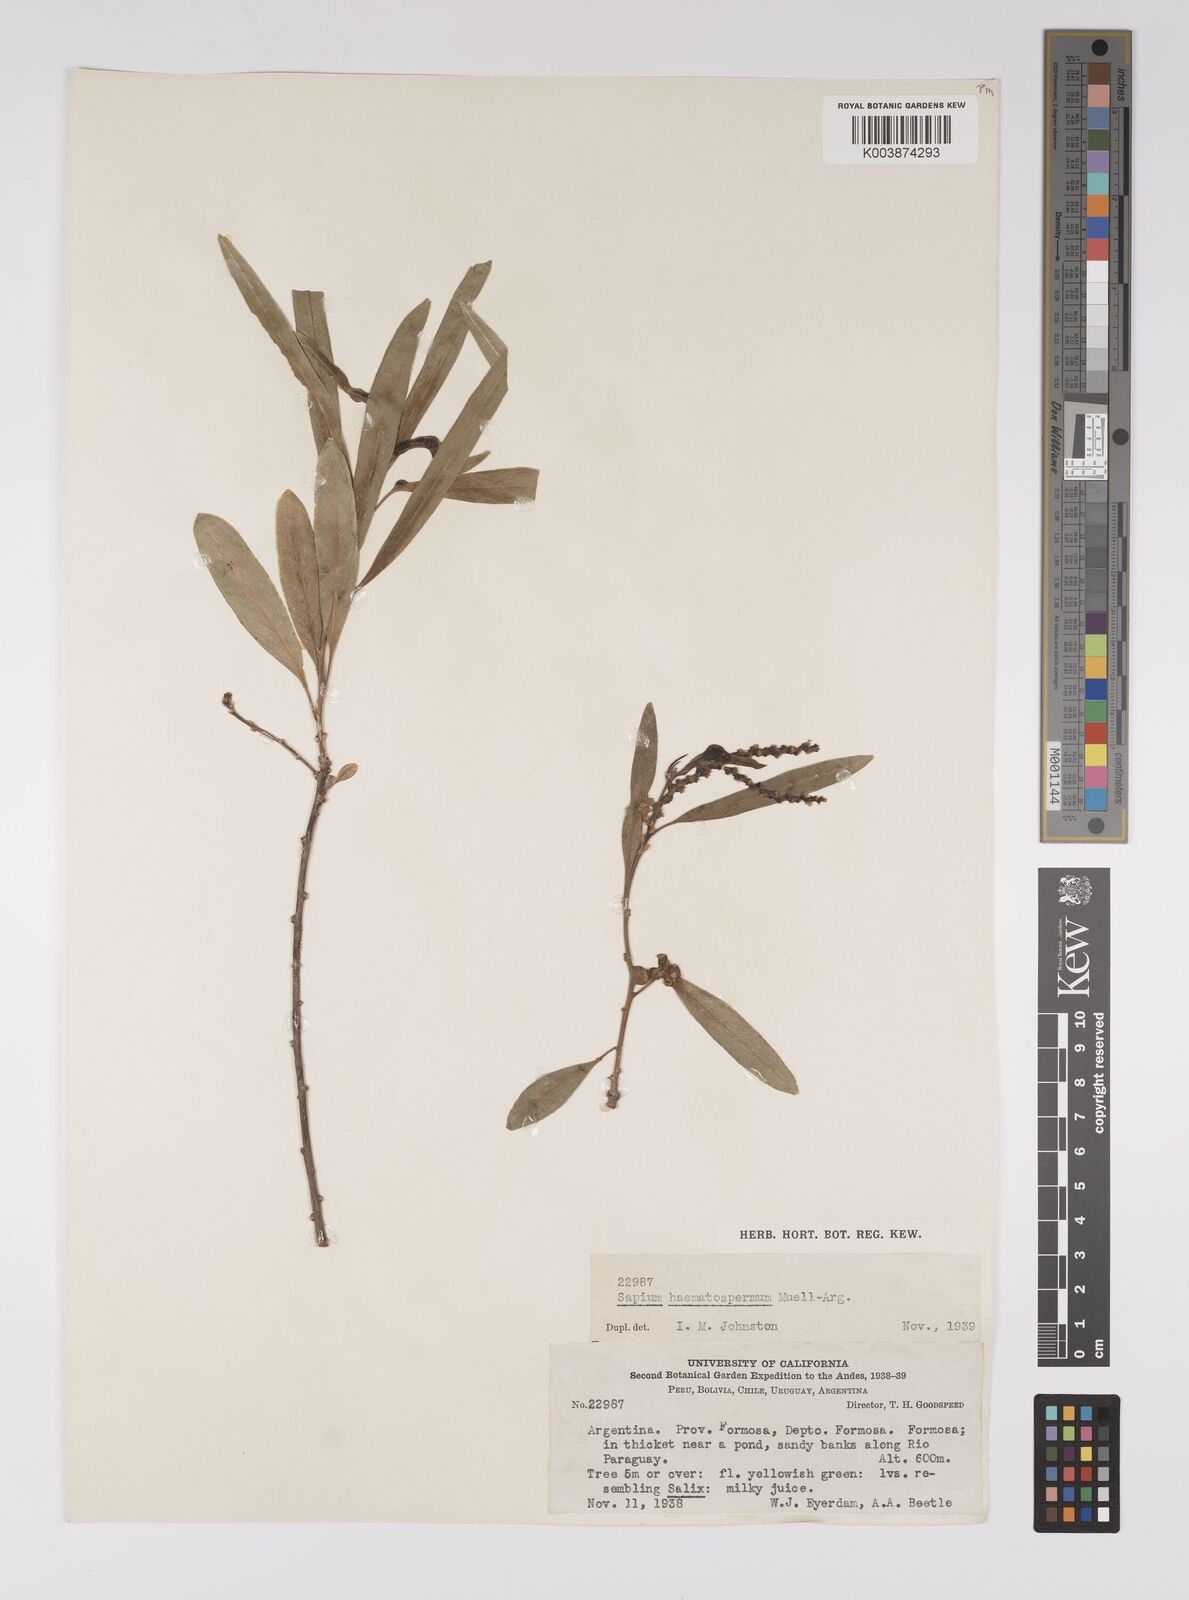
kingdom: Plantae
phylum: Tracheophyta
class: Magnoliopsida
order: Malpighiales
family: Euphorbiaceae
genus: Sapium
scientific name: Sapium haematospermum
